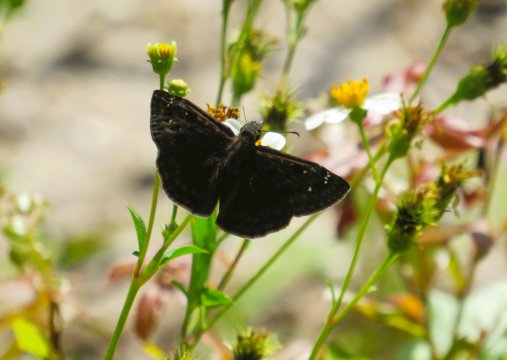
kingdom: Animalia
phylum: Arthropoda
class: Insecta
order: Lepidoptera
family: Hesperiidae
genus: Gesta
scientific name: Gesta
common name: Horace's Duskywing
